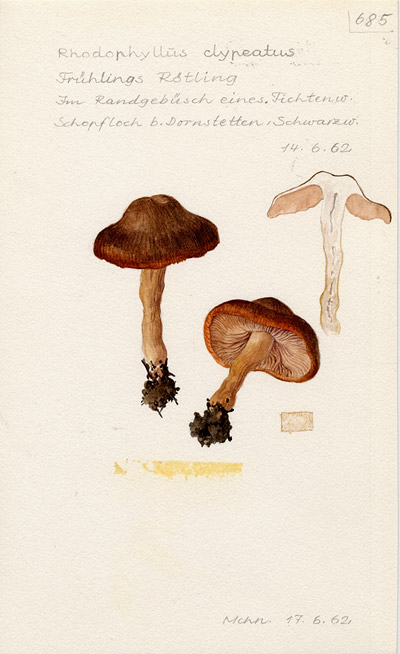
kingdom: Fungi
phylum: Basidiomycota
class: Agaricomycetes
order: Agaricales
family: Entolomataceae
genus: Entoloma
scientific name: Entoloma clypeatum
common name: Shield pinkgill
